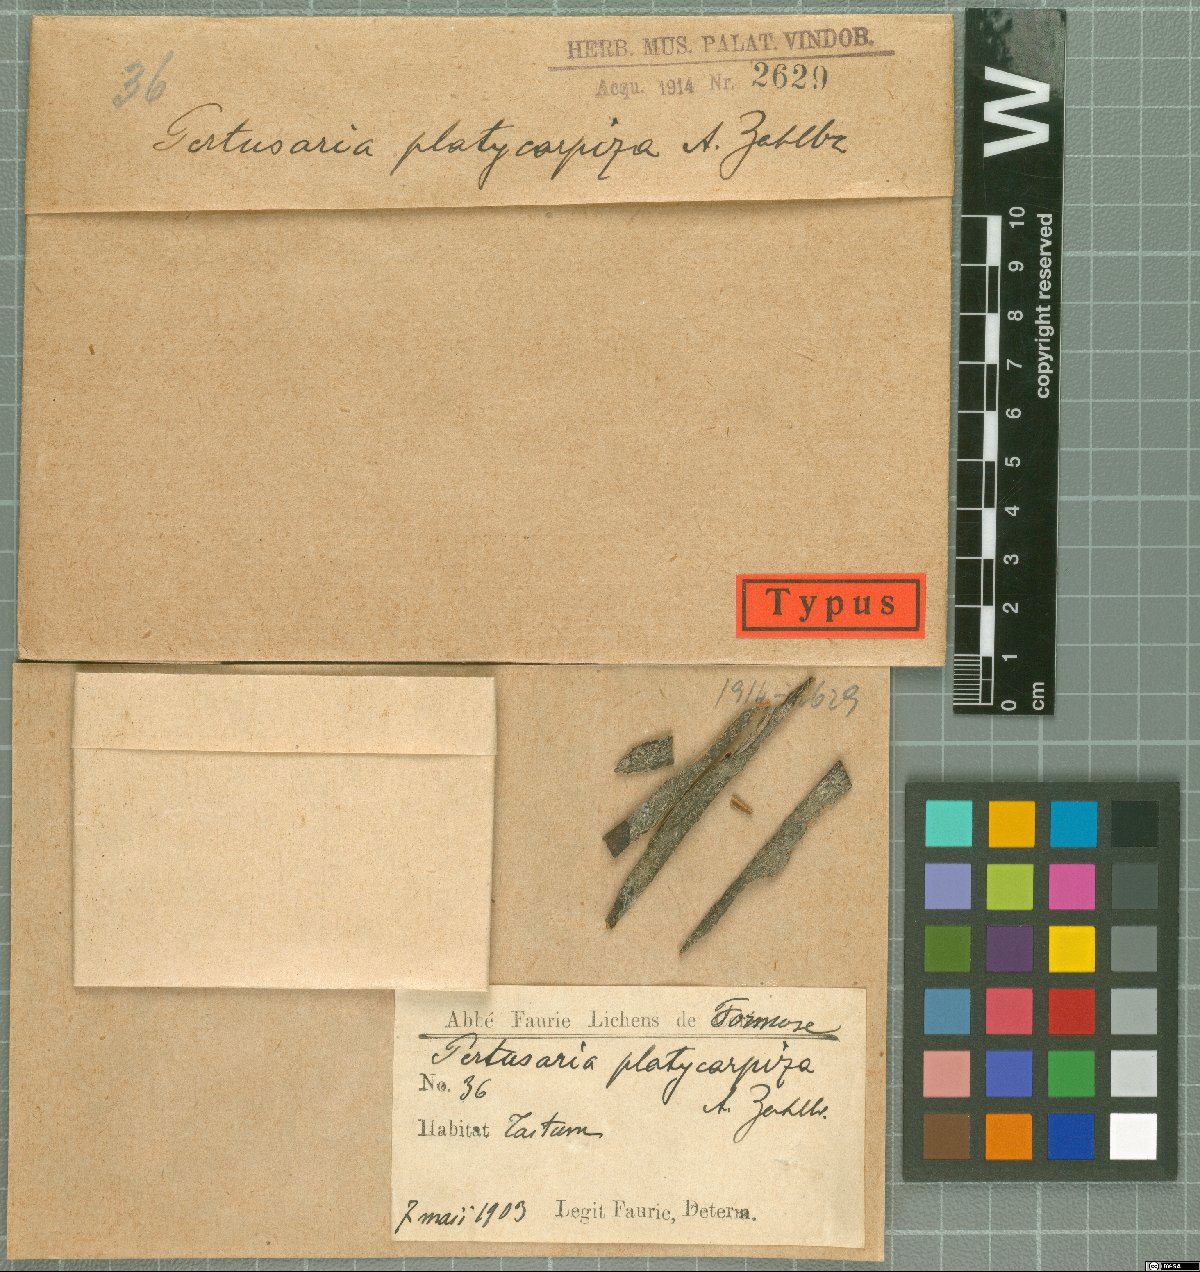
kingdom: Fungi
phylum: Ascomycota
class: Lecanoromycetes
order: Pertusariales
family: Pertusariaceae
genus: Pertusaria
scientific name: Pertusaria platycarpiza
